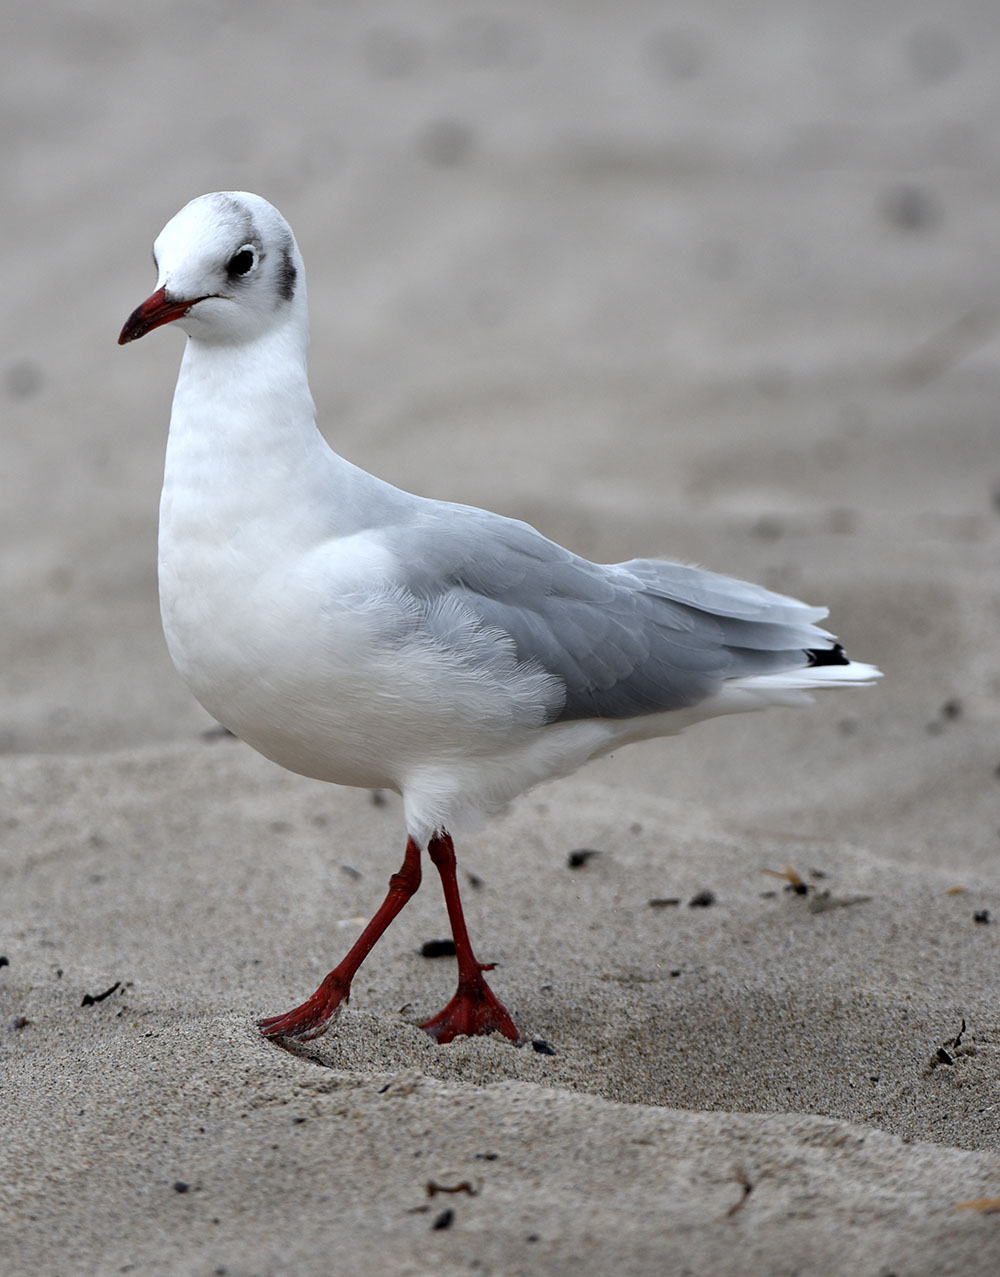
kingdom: Animalia
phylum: Chordata
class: Aves
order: Charadriiformes
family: Laridae
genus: Chroicocephalus
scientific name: Chroicocephalus ridibundus
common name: Black-headed gull
